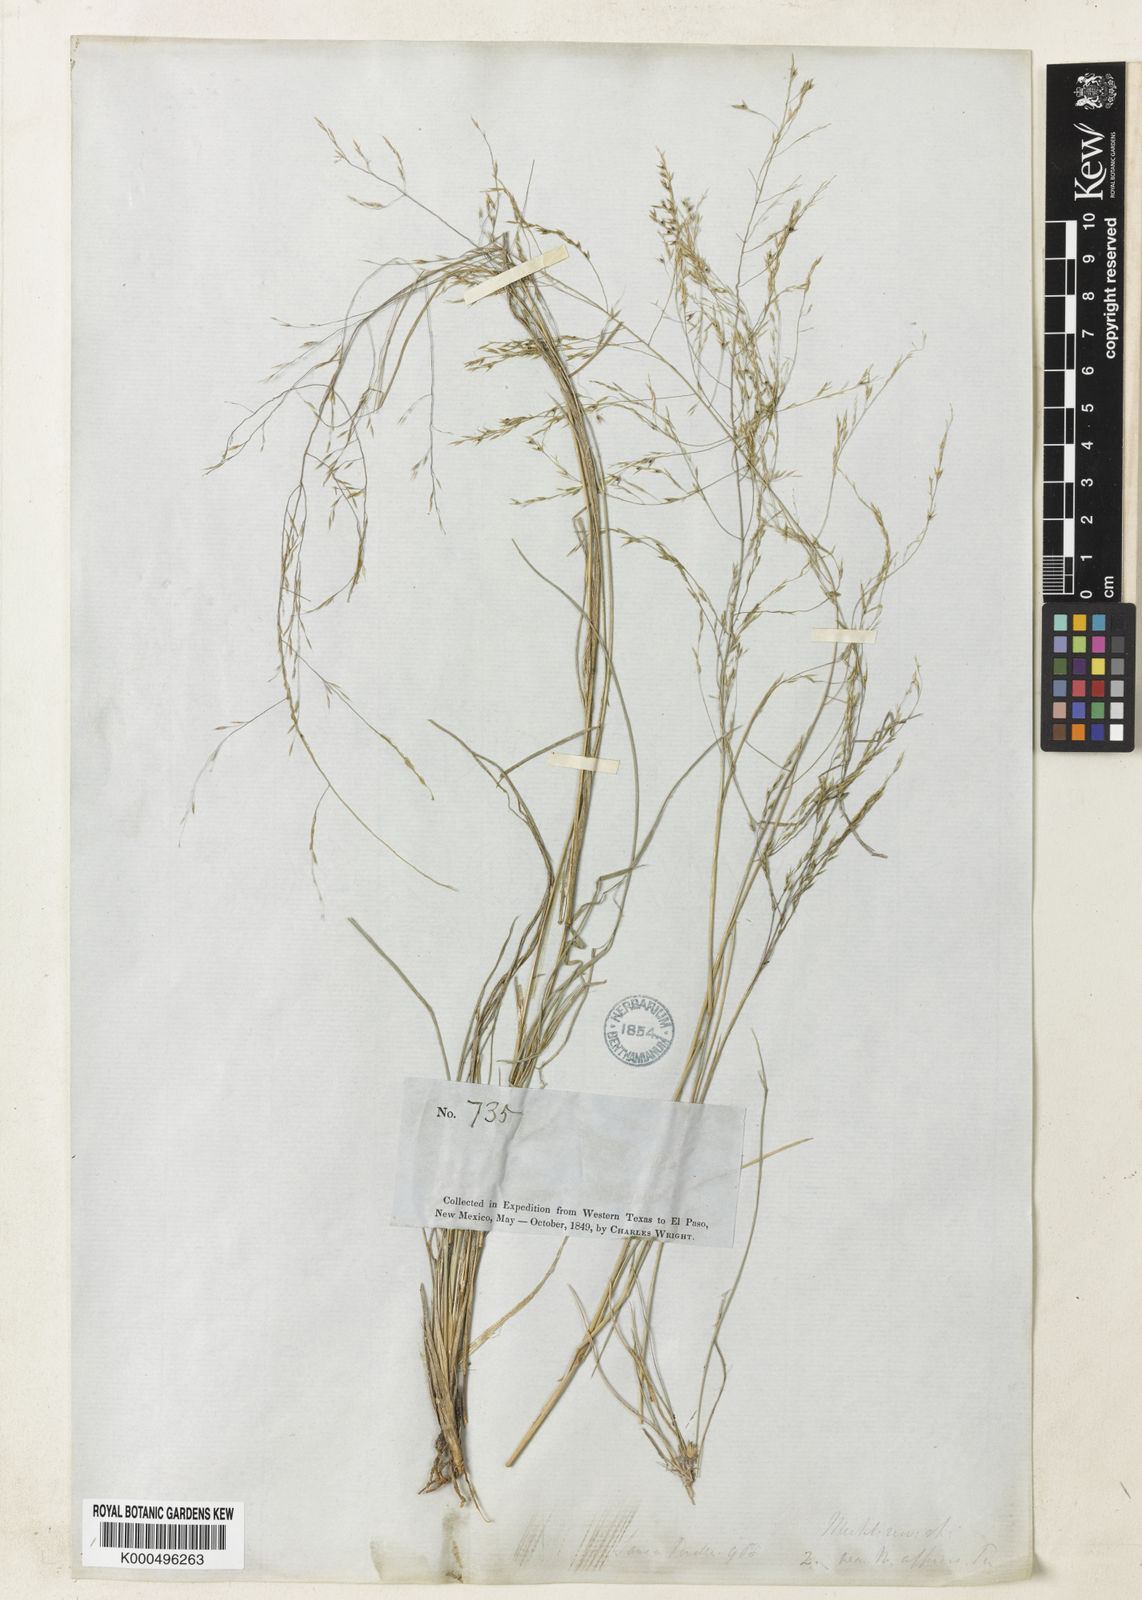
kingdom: Plantae
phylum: Tracheophyta
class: Liliopsida
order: Poales
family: Poaceae
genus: Muhlenbergia
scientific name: Muhlenbergia arenicola
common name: Sand muhly
